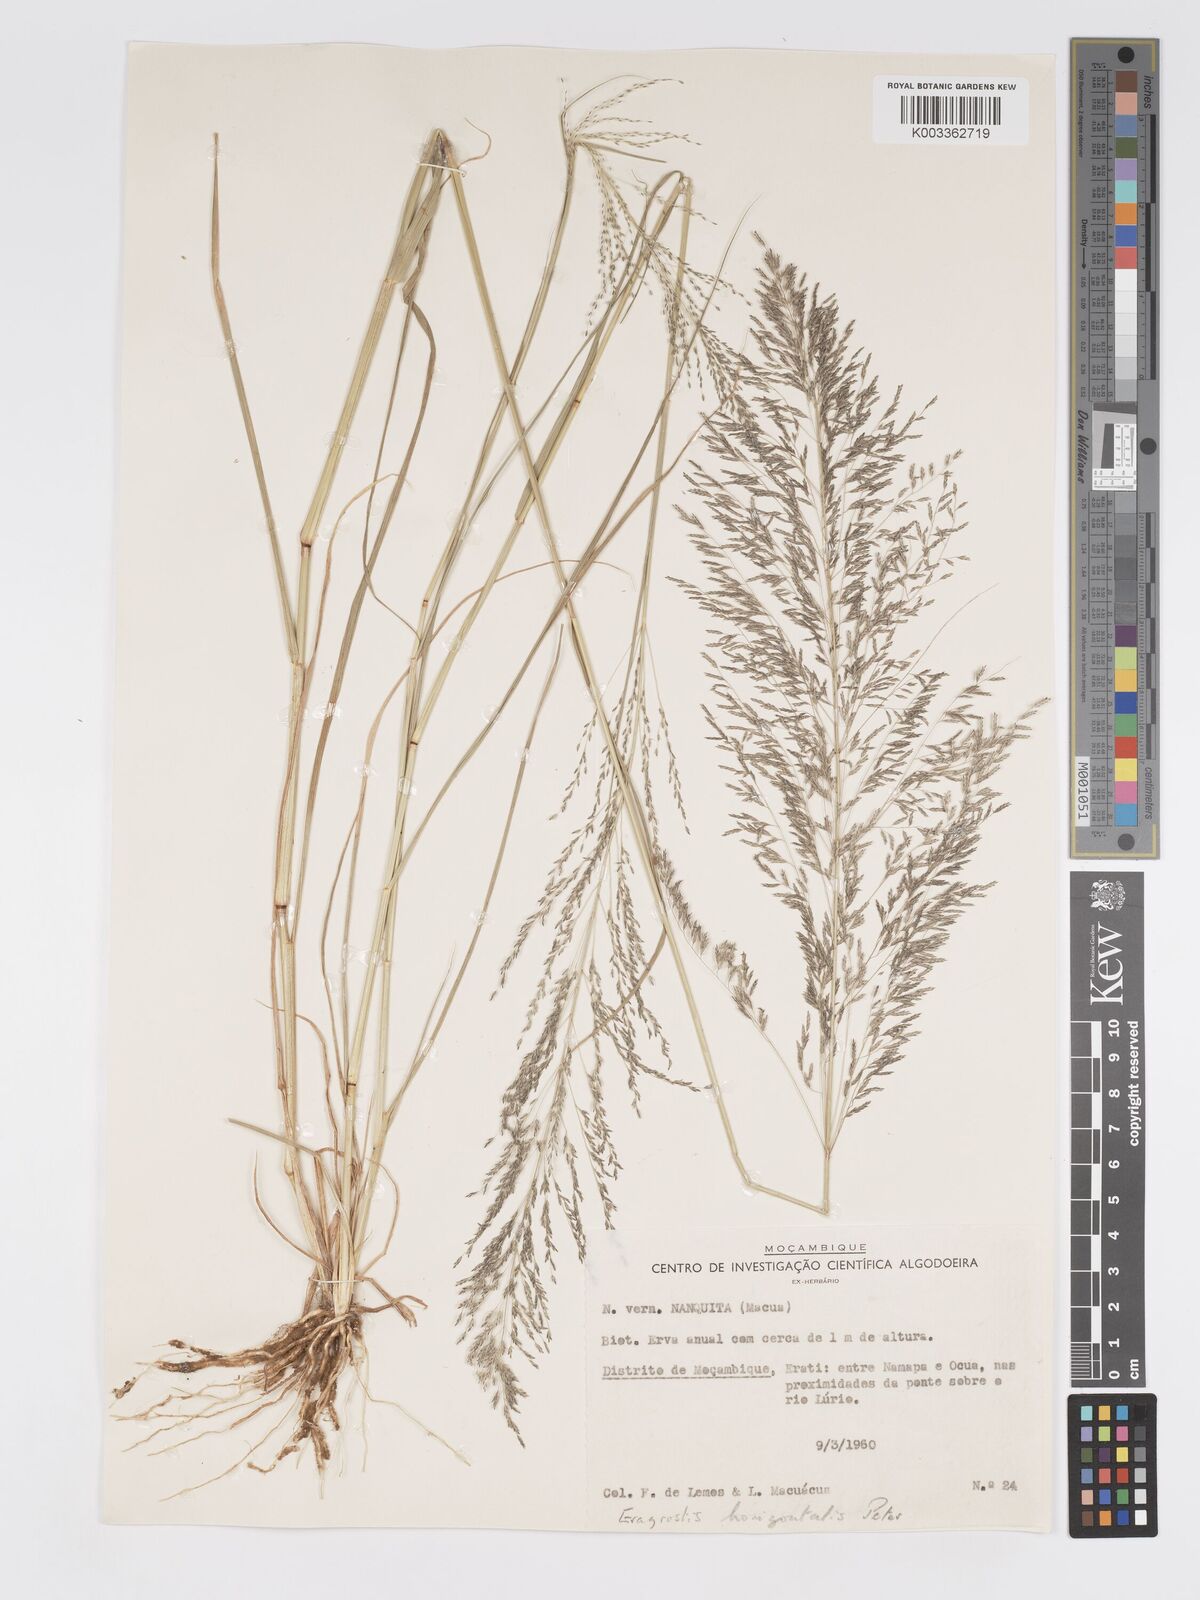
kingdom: Plantae
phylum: Tracheophyta
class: Liliopsida
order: Poales
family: Poaceae
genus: Eragrostis
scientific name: Eragrostis cylindriflora
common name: Cylinderflower lovegrass
